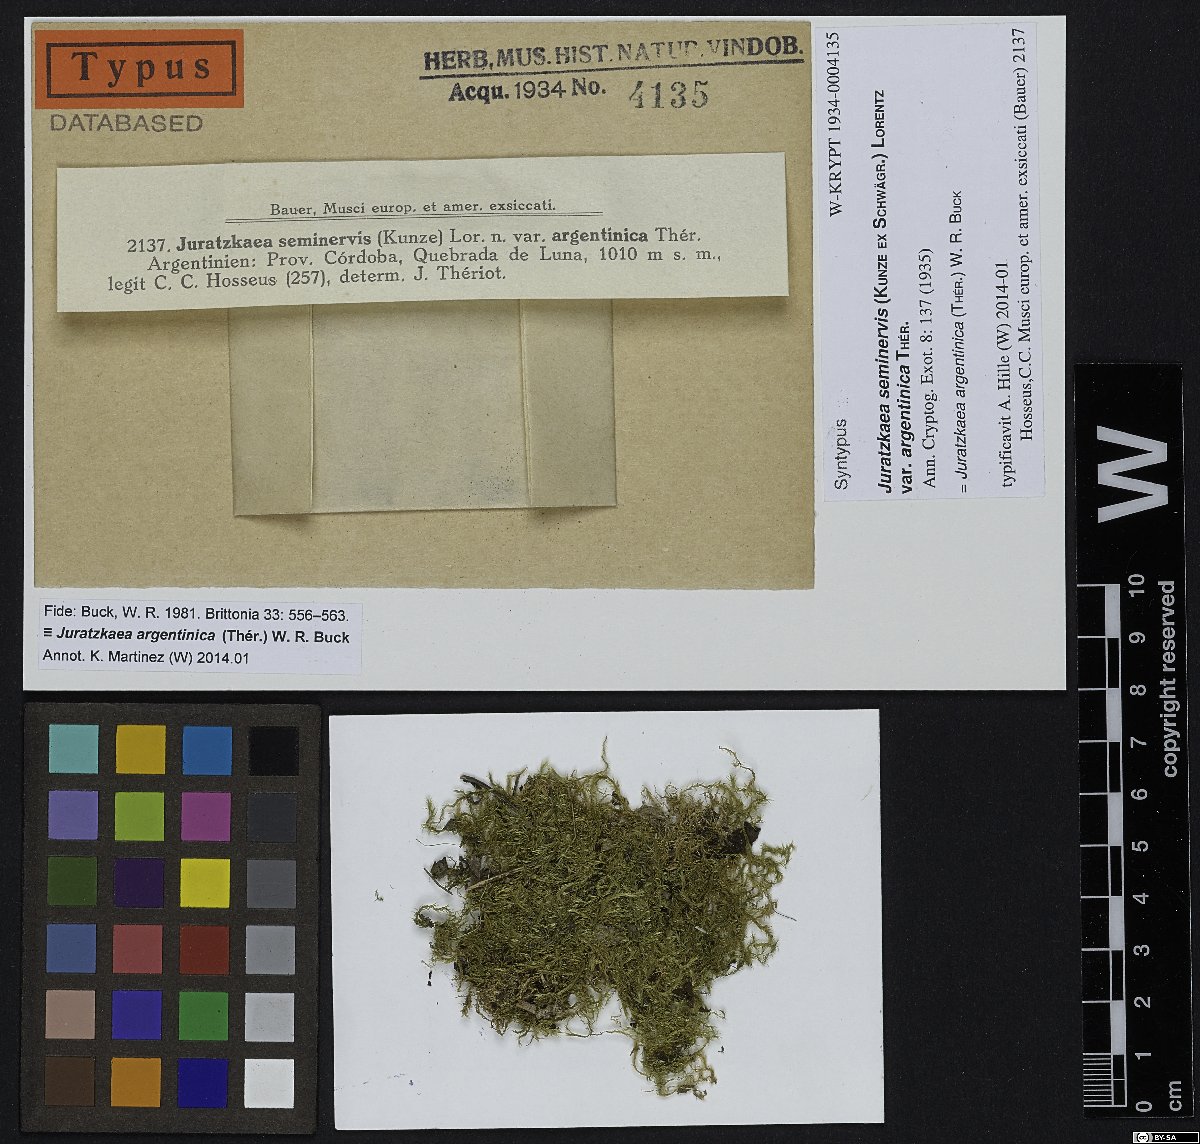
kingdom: Plantae
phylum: Bryophyta
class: Bryopsida
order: Hypnales
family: Stereophyllaceae
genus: Juratzkaea
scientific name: Juratzkaea argentinica
